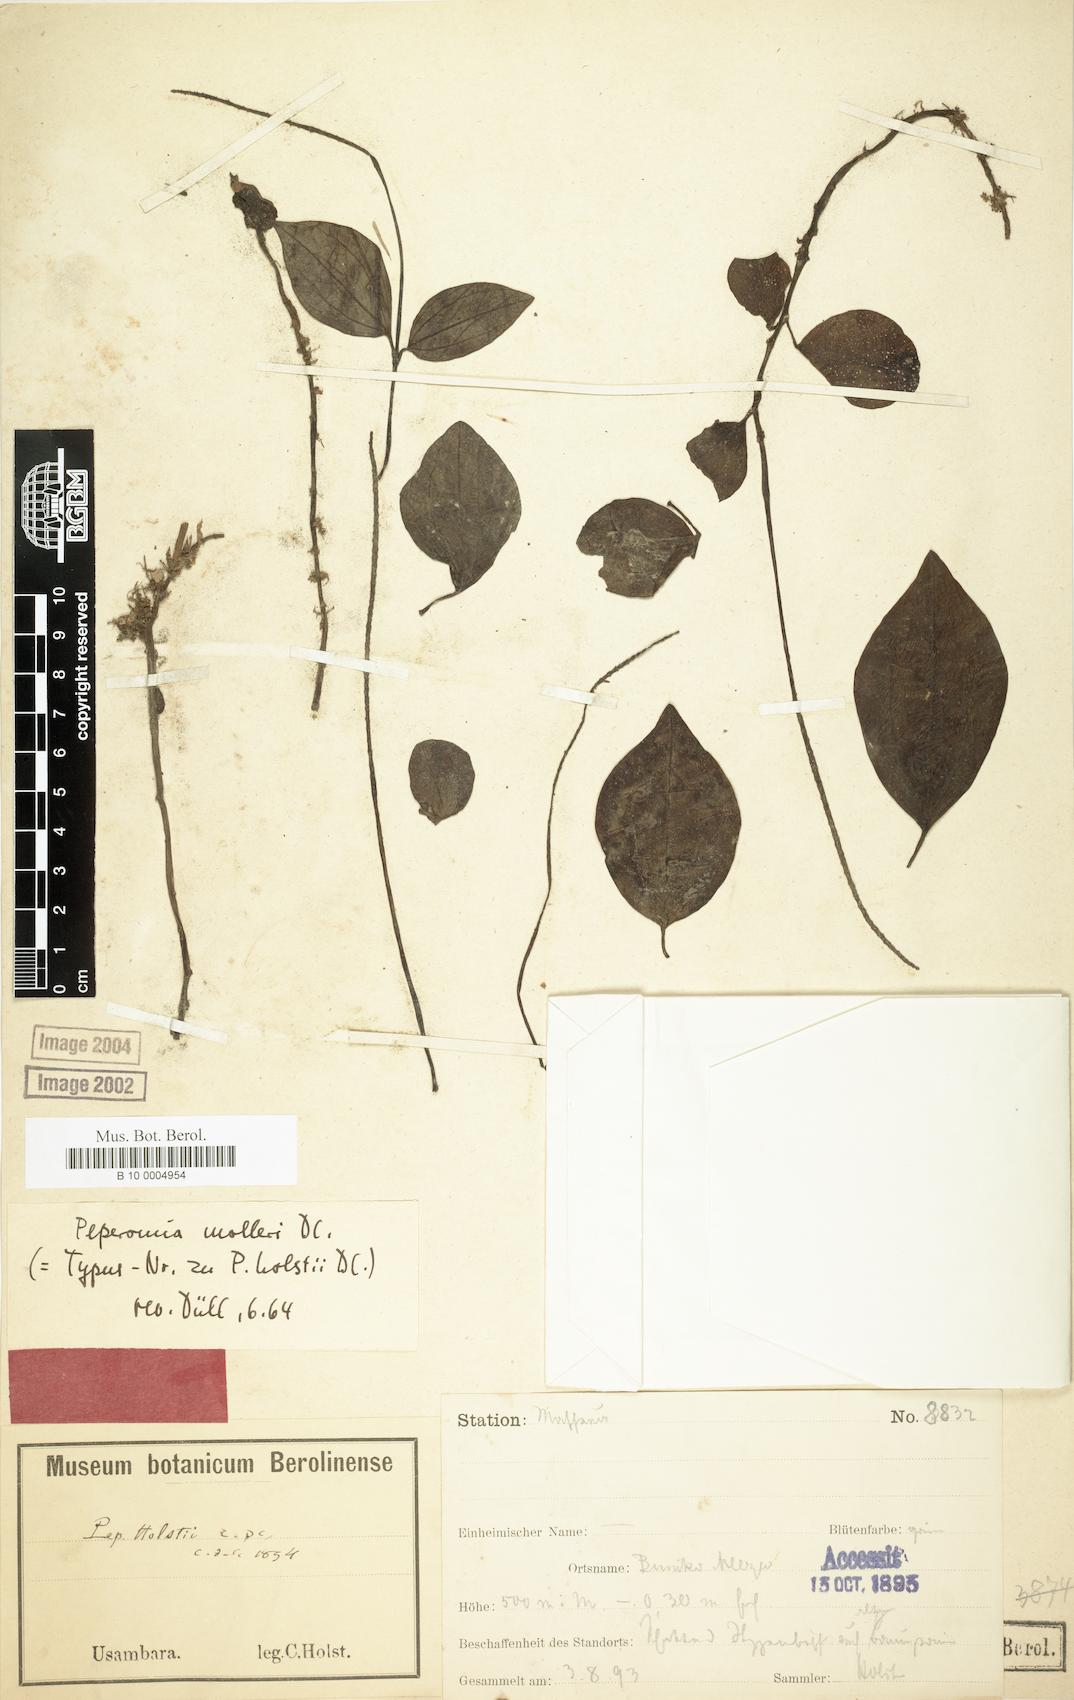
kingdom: Plantae
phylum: Tracheophyta
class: Magnoliopsida
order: Piperales
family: Piperaceae
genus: Peperomia
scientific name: Peperomia molleri
